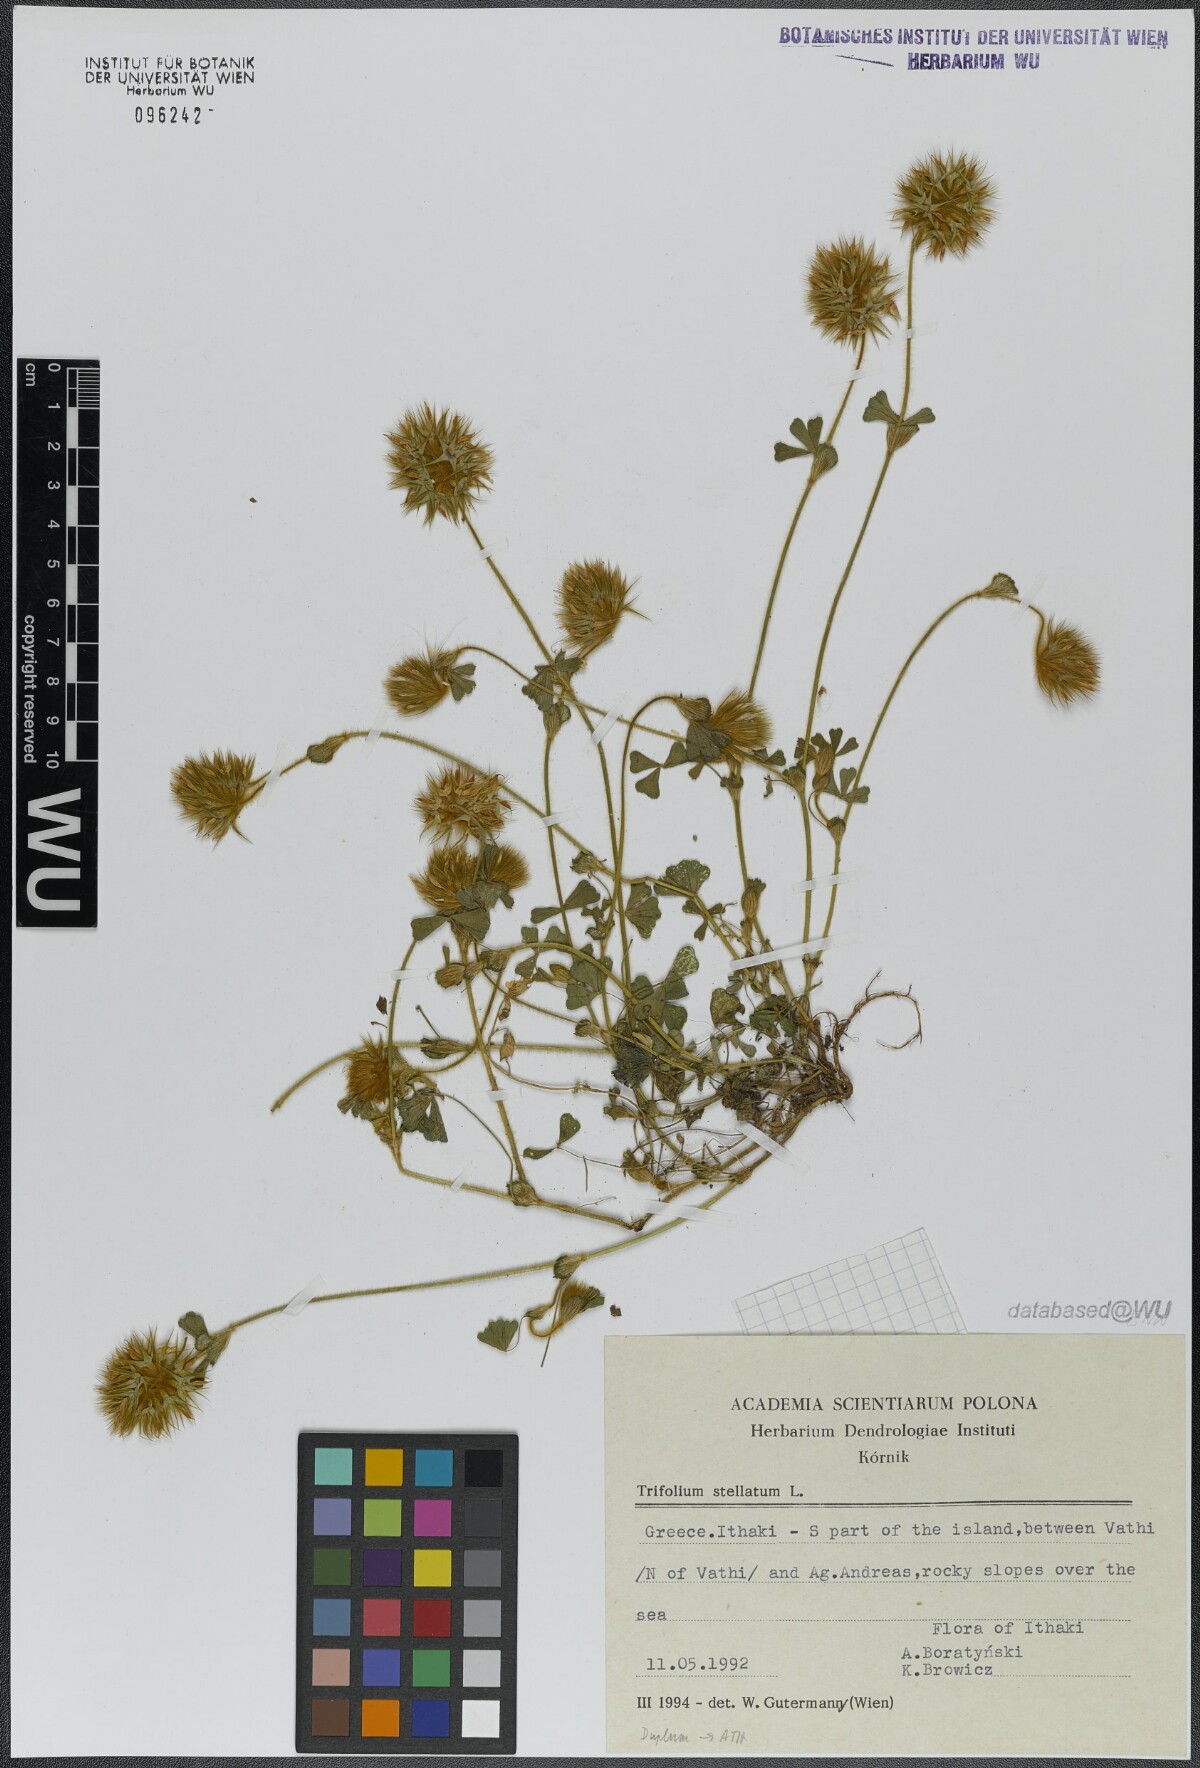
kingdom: Plantae
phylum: Tracheophyta
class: Magnoliopsida
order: Fabales
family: Fabaceae
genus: Trifolium
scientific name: Trifolium stellatum
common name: Starry clover
